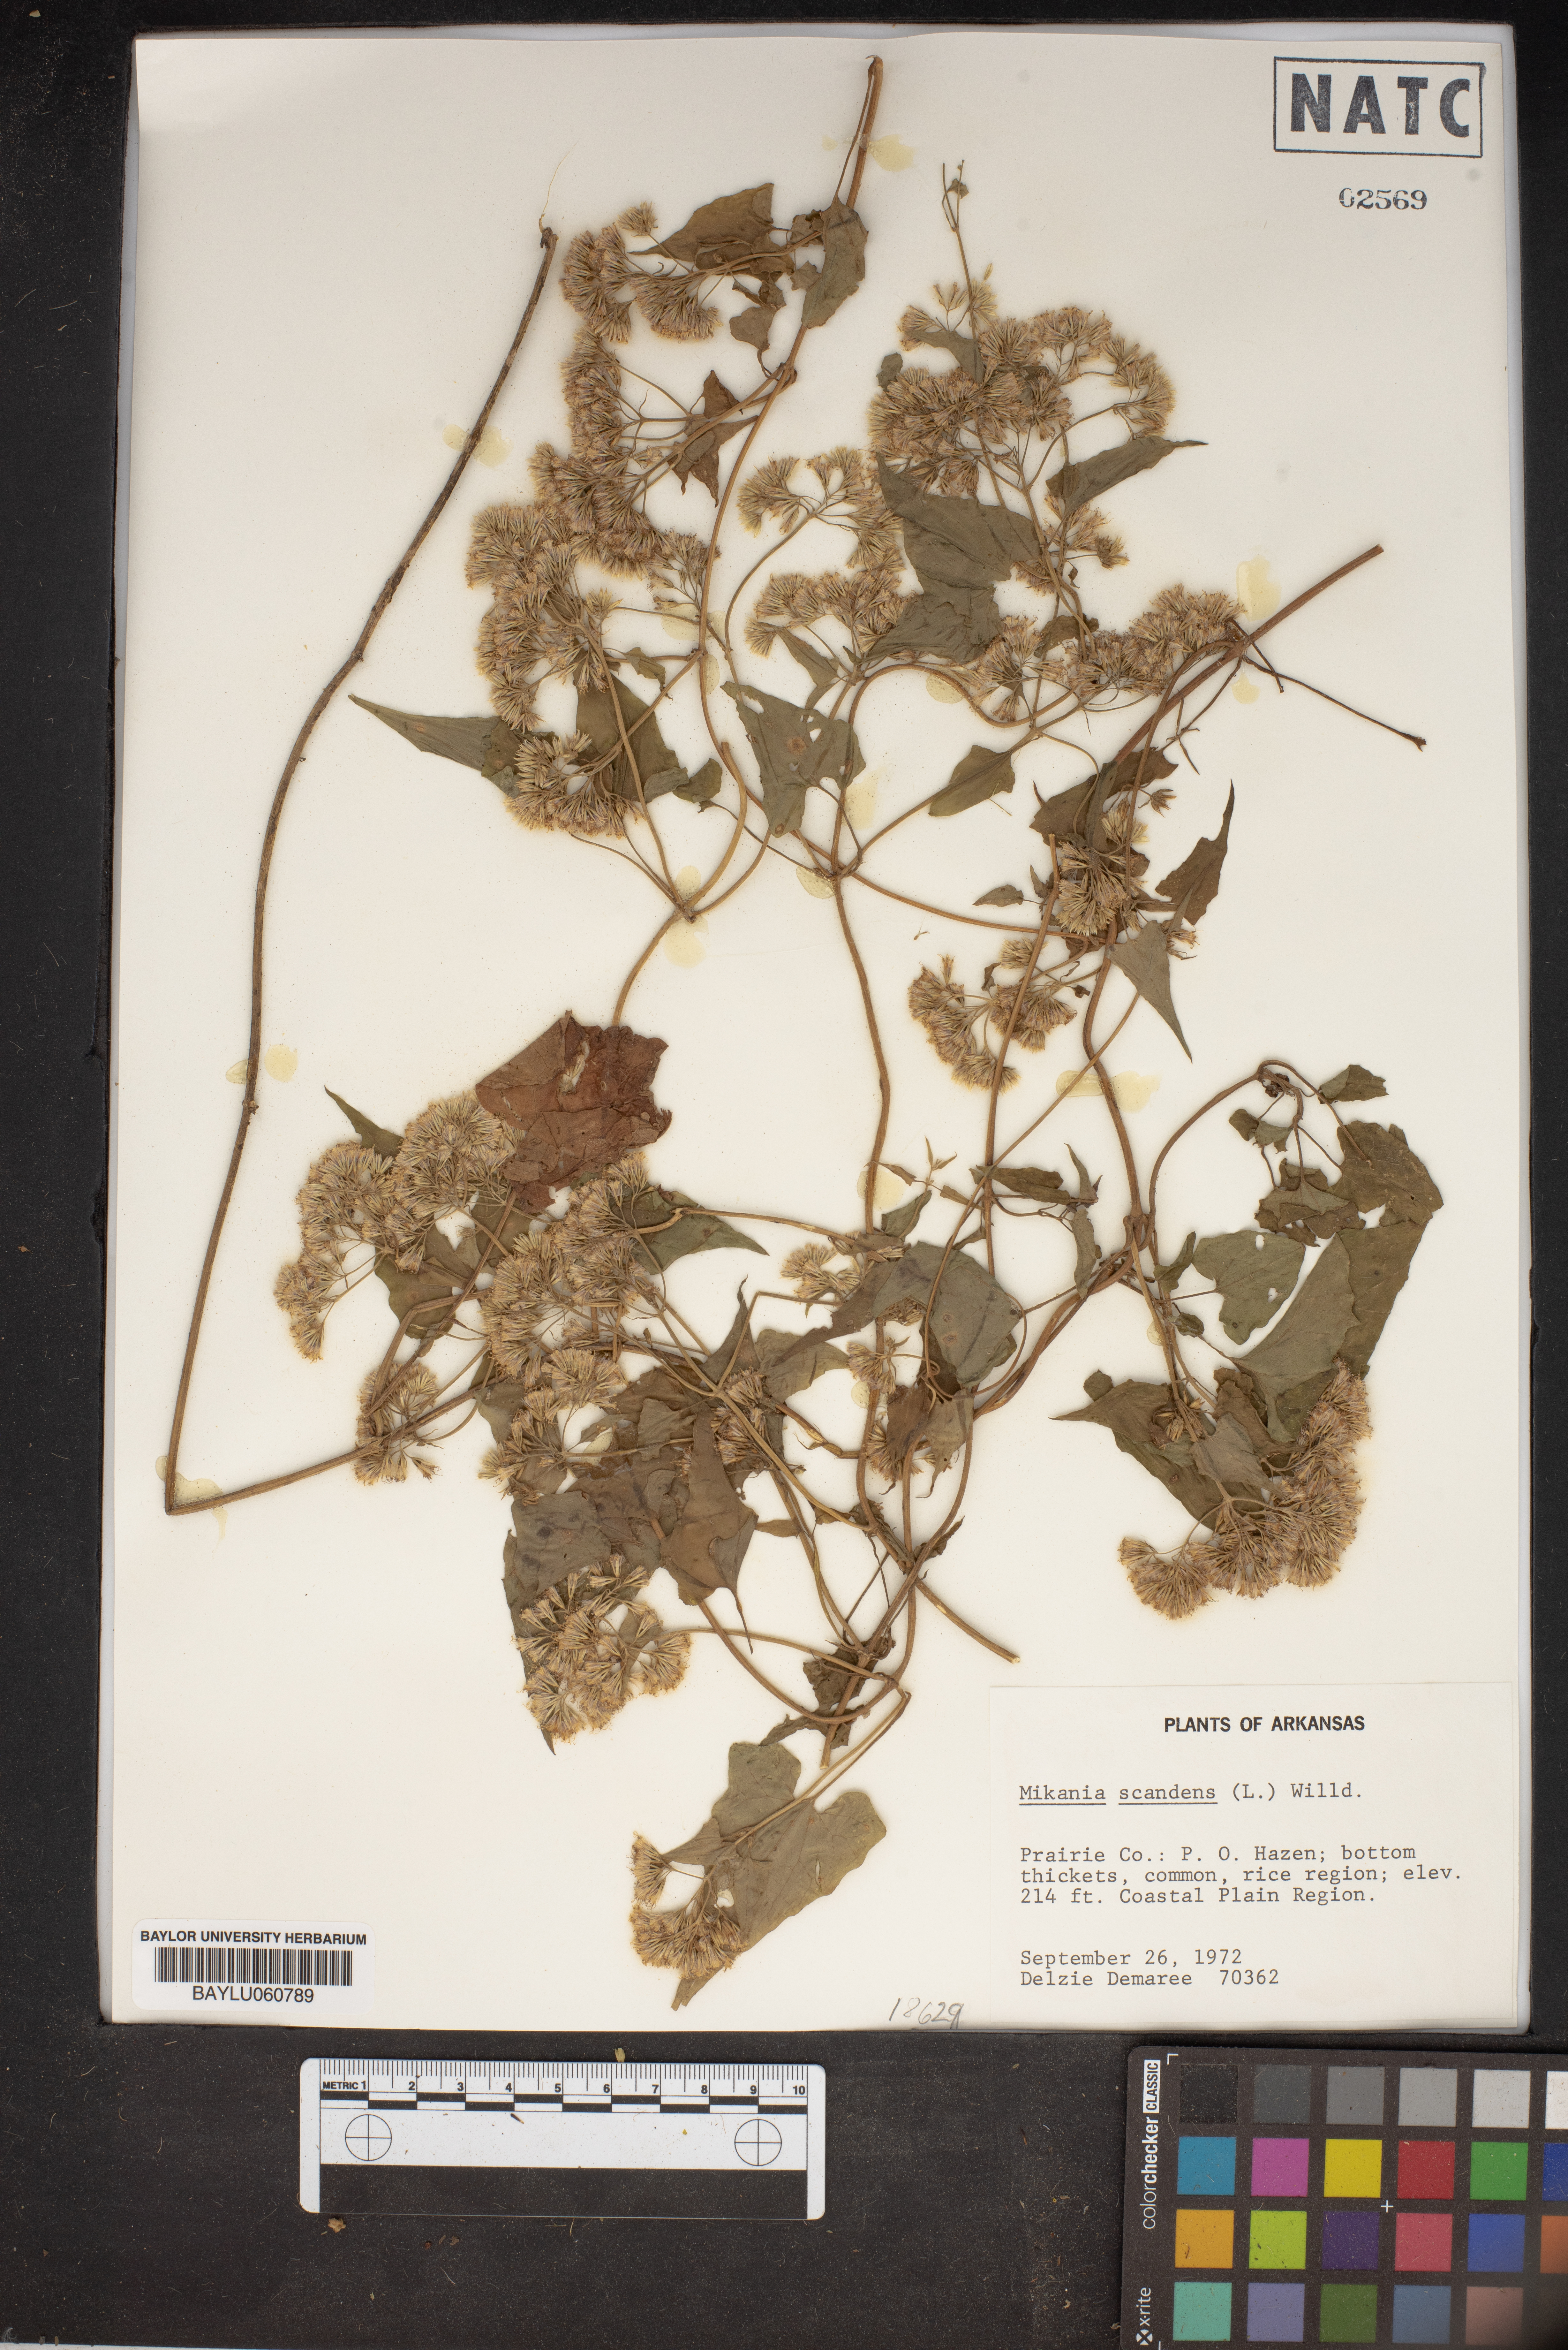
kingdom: Plantae
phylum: Tracheophyta
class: Magnoliopsida
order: Asterales
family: Asteraceae
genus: Mikania
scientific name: Mikania scandens
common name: Climbing hempvine
